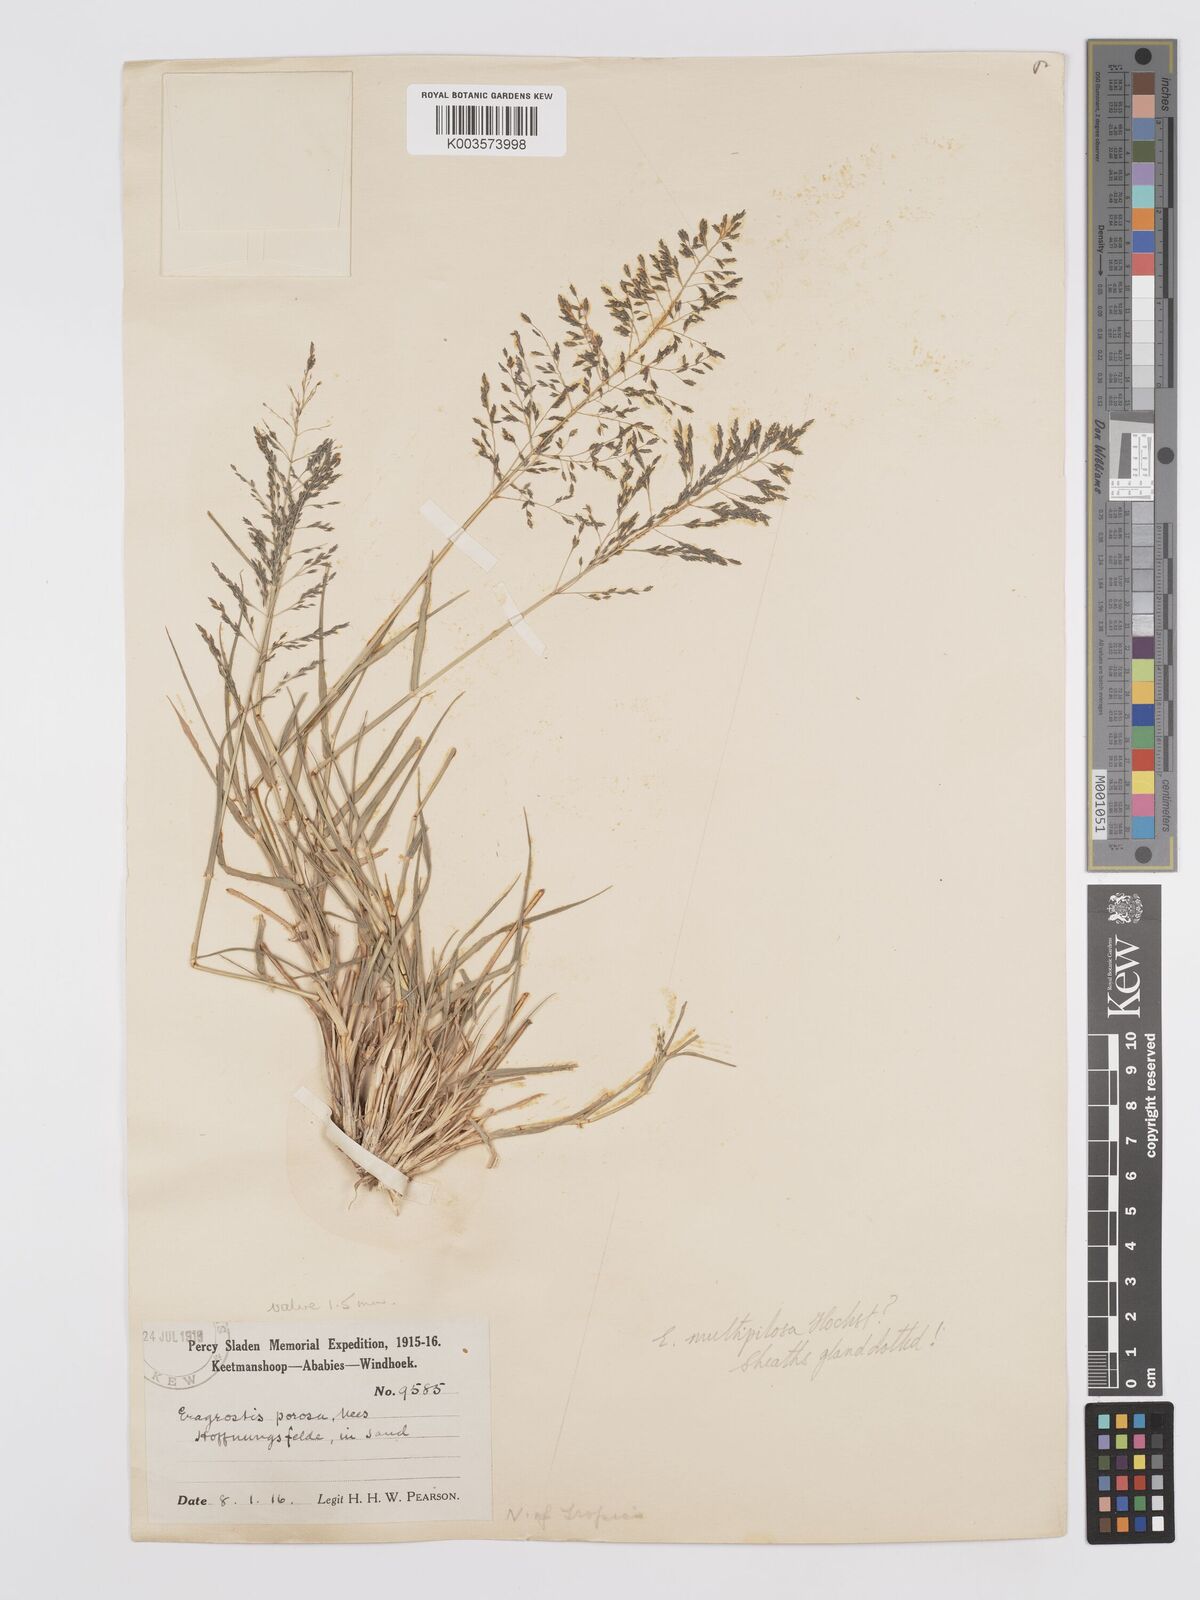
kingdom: Plantae
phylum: Tracheophyta
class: Liliopsida
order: Poales
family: Poaceae
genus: Eragrostis
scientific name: Eragrostis cylindriflora
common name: Cylinderflower lovegrass
